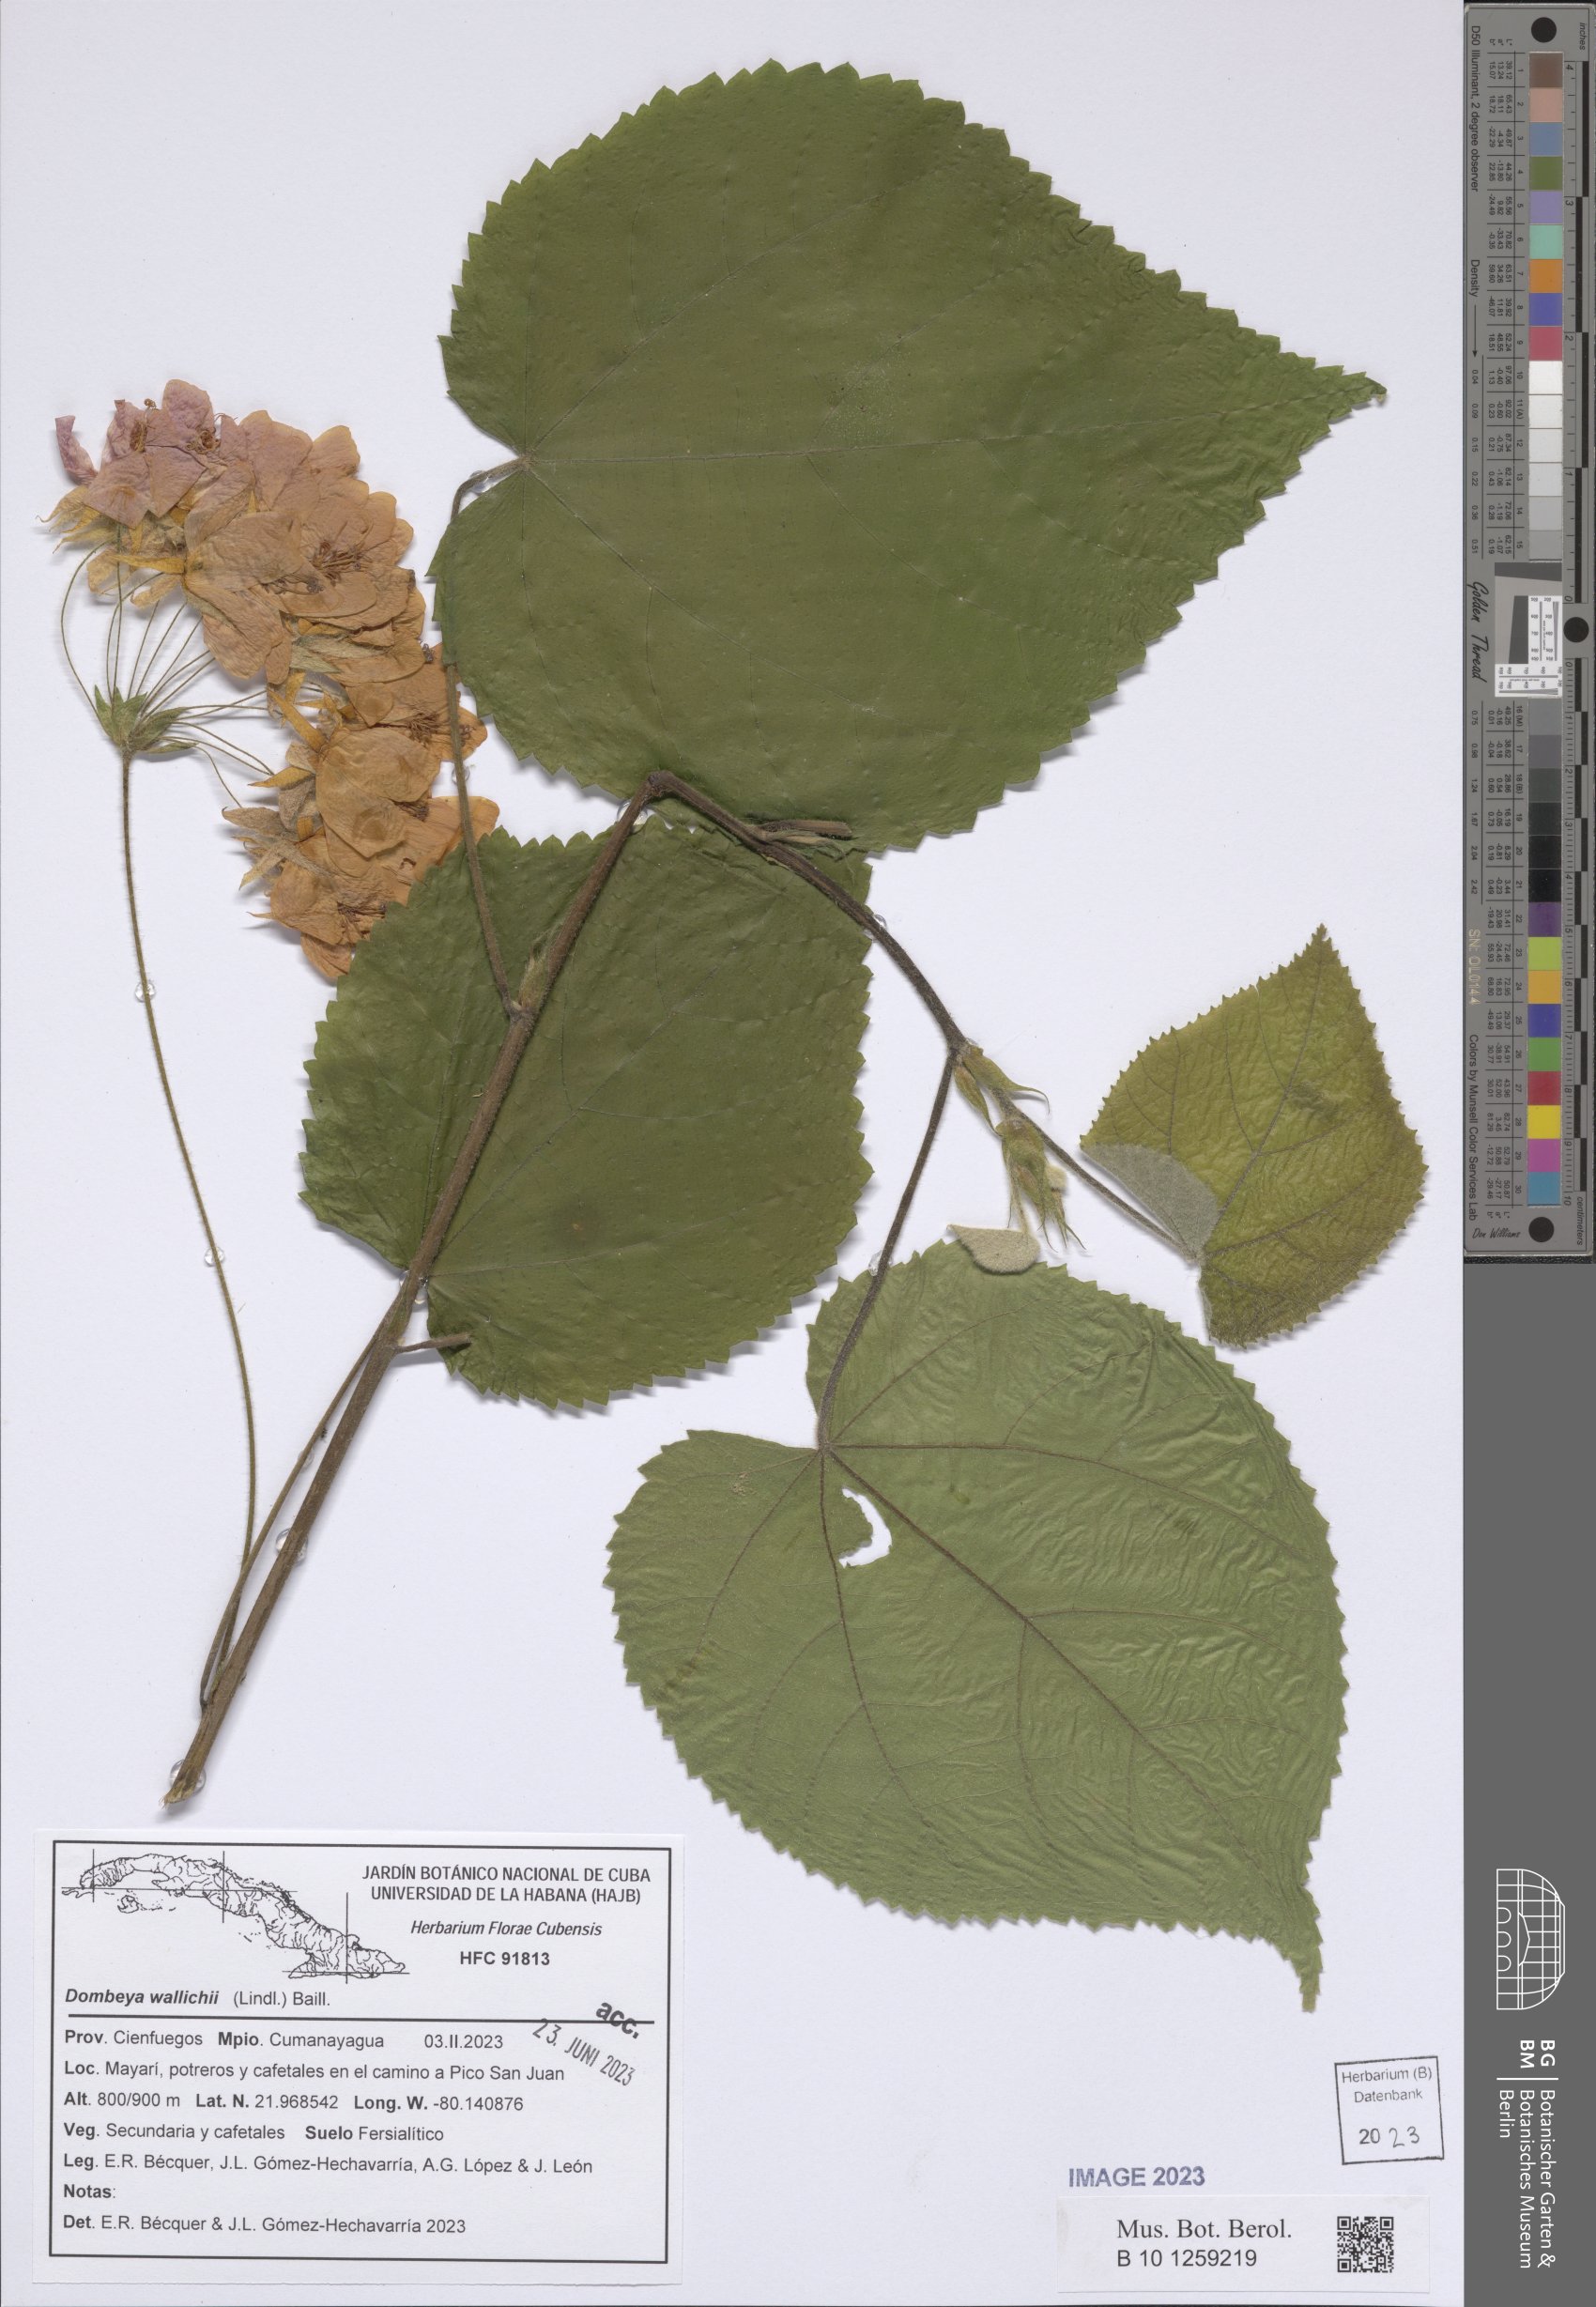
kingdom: Plantae
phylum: Tracheophyta
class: Magnoliopsida
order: Malvales
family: Malvaceae
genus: Dombeya
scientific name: Dombeya wallichii
